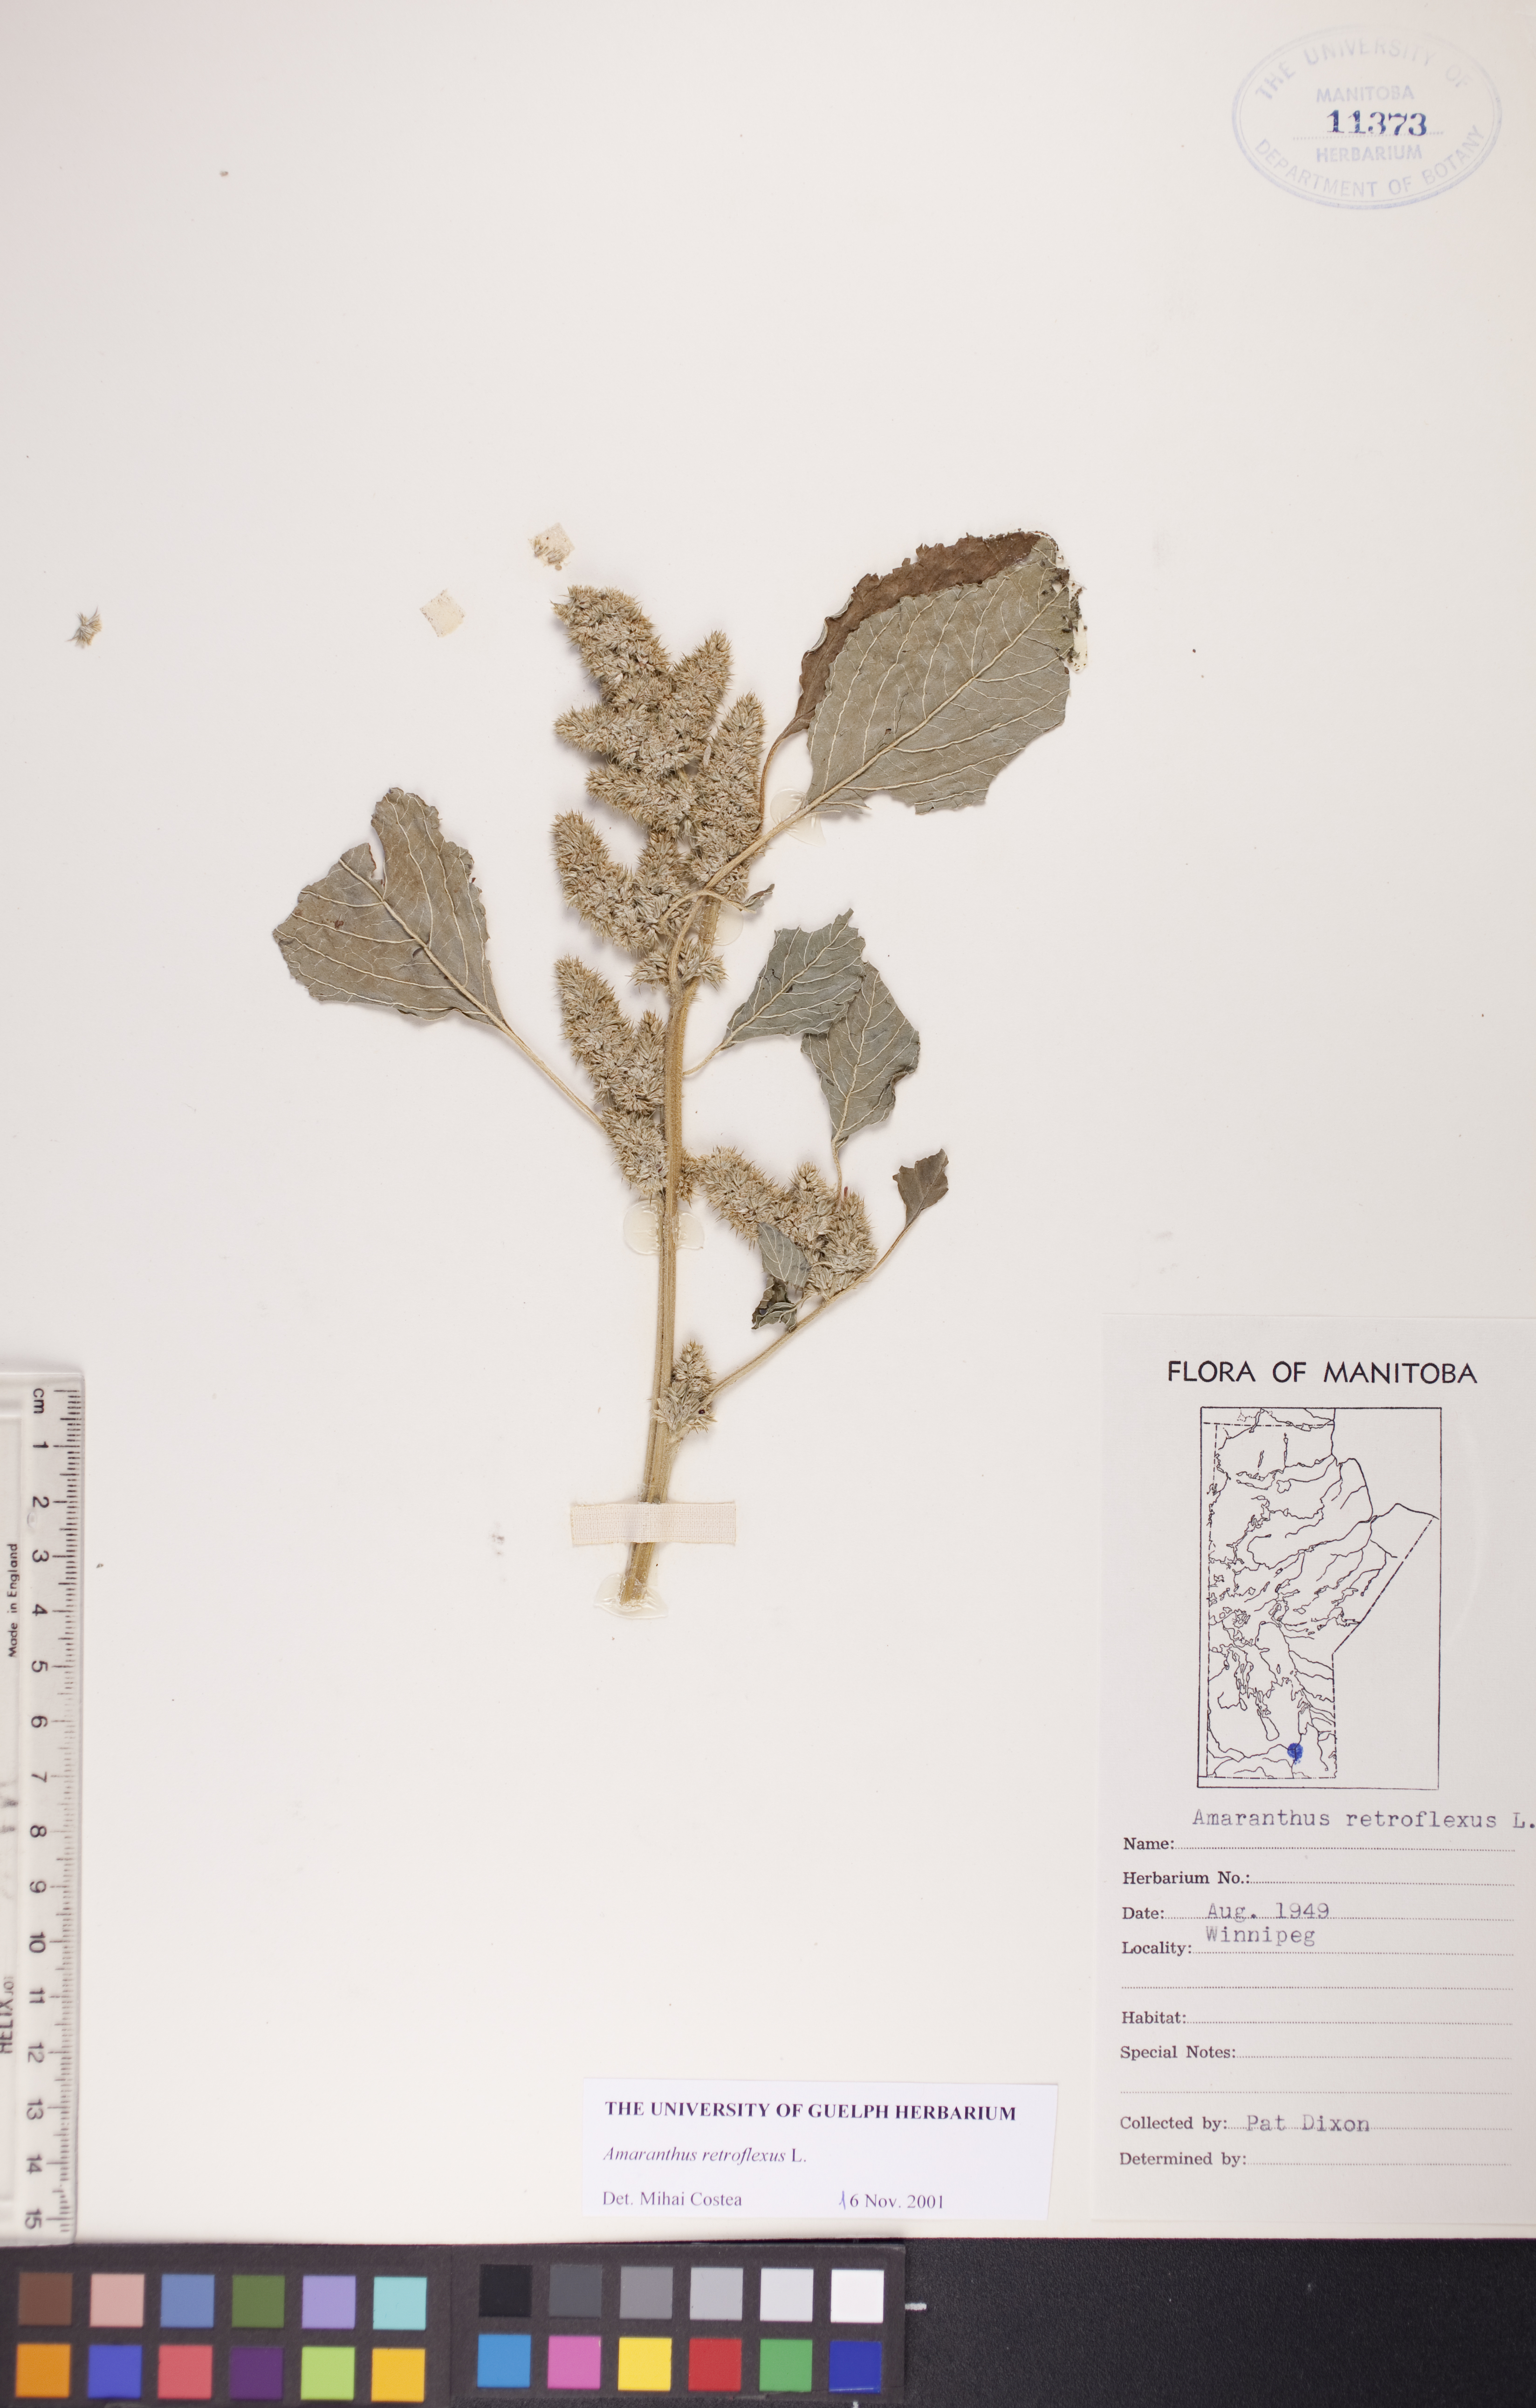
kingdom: Plantae
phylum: Tracheophyta
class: Magnoliopsida
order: Caryophyllales
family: Amaranthaceae
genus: Amaranthus
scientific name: Amaranthus retroflexus
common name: Redroot amaranth
